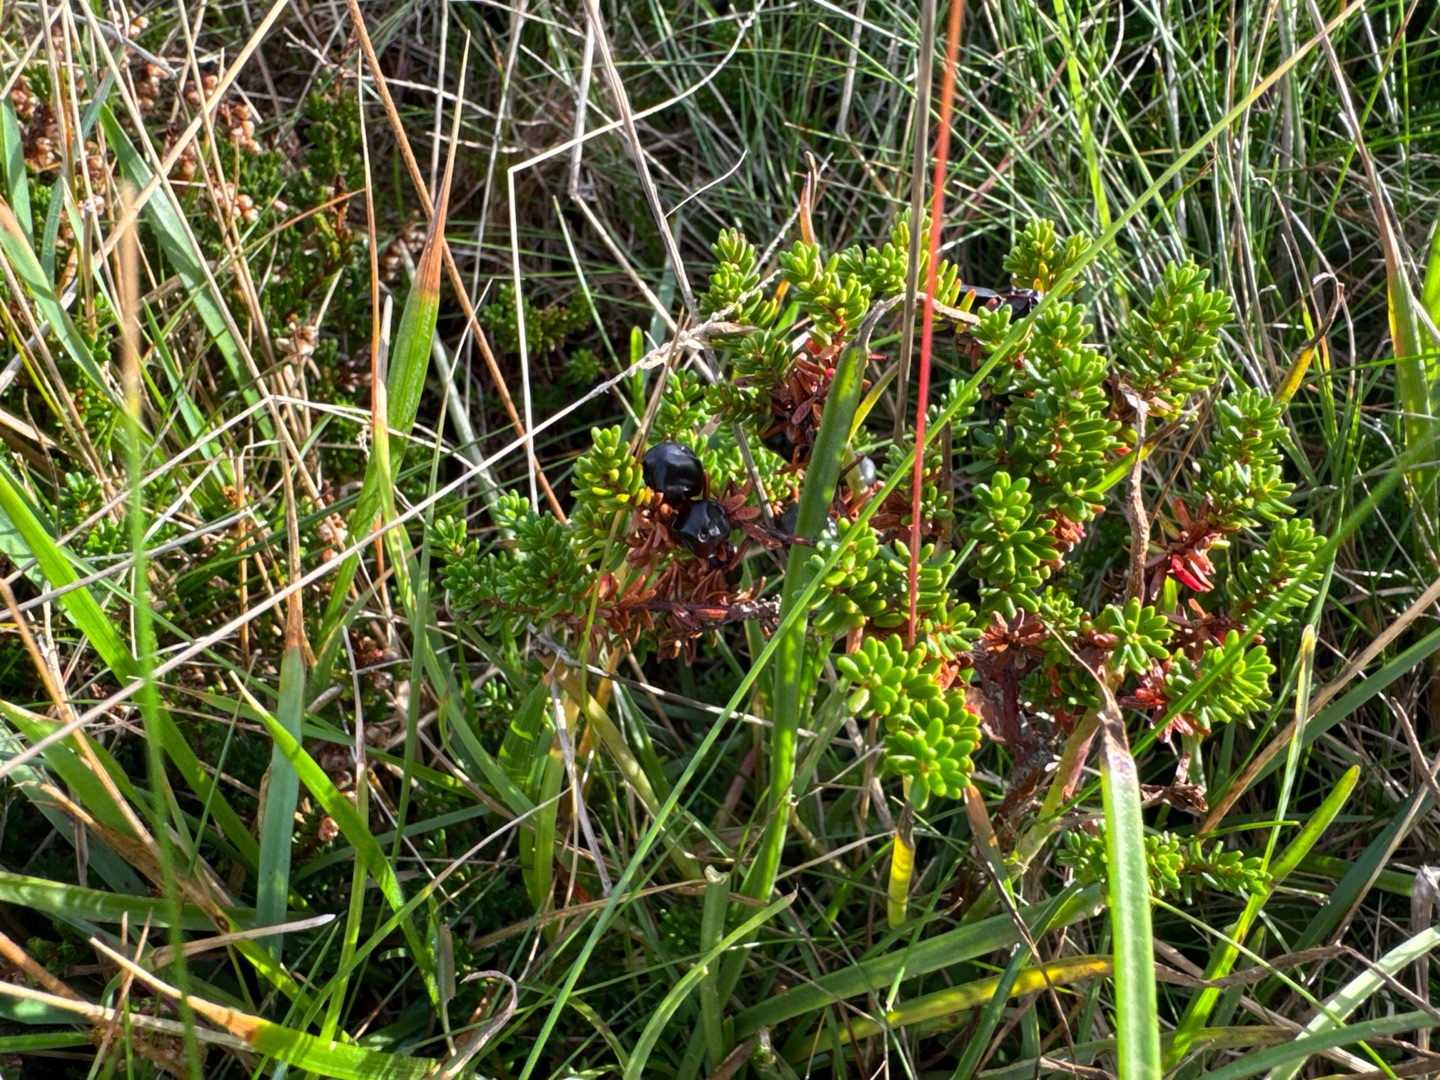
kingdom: Plantae
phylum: Tracheophyta
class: Magnoliopsida
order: Ericales
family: Ericaceae
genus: Empetrum
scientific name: Empetrum nigrum
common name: Revling
